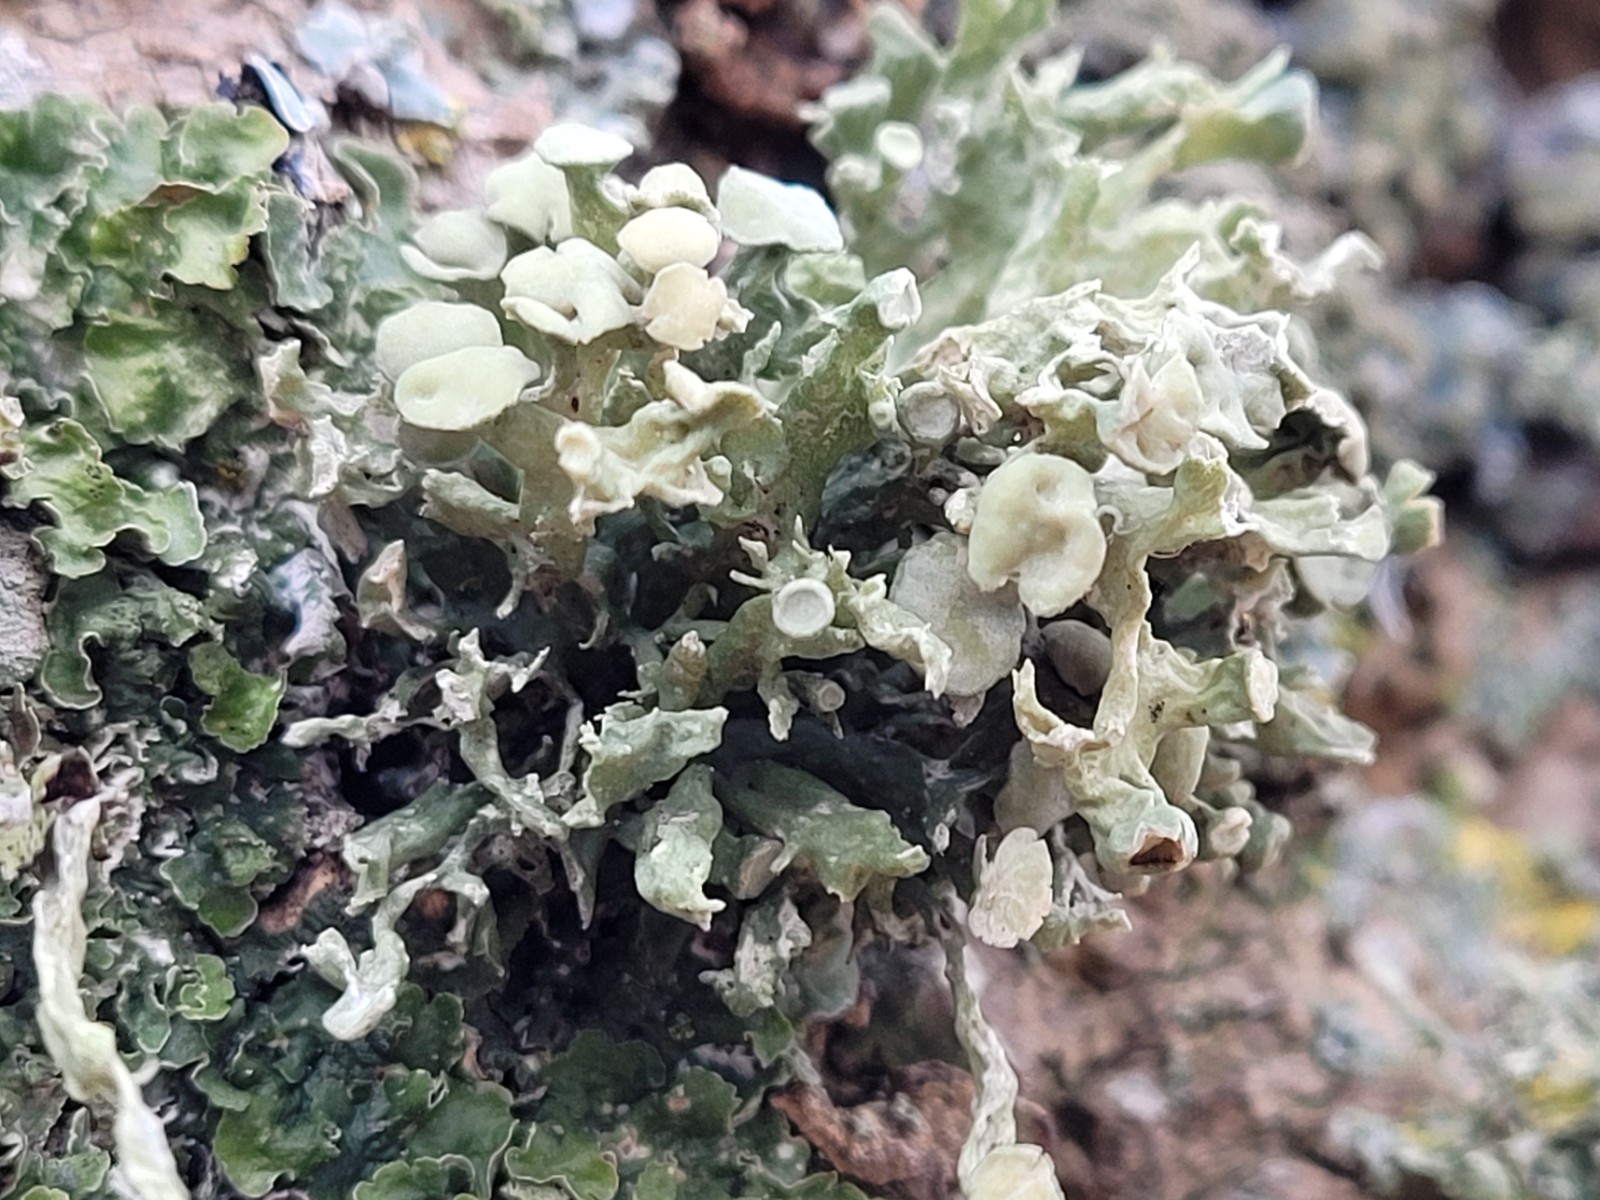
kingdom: Fungi
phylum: Ascomycota
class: Lecanoromycetes
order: Lecanorales
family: Ramalinaceae
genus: Ramalina
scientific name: Ramalina fastigiata
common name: tue-grenlav
